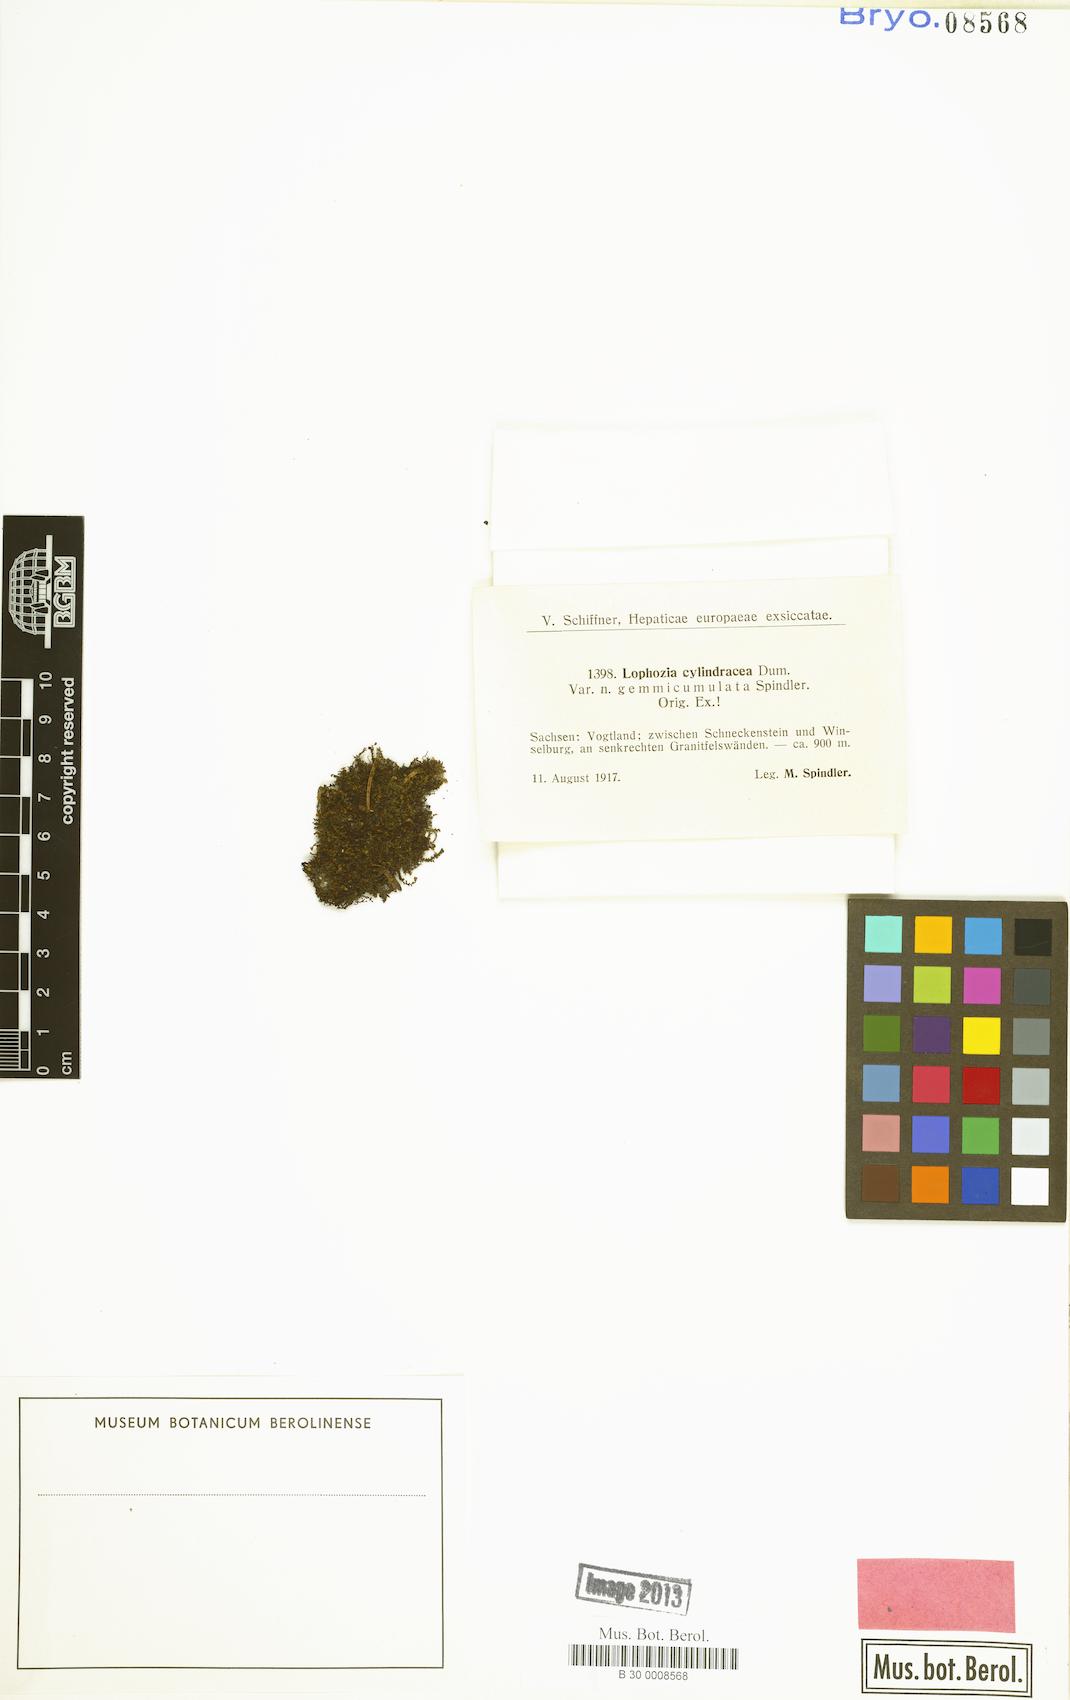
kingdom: Plantae
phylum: Marchantiophyta
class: Jungermanniopsida
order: Jungermanniales
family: Lophoziaceae
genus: Lophoziopsis
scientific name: Lophoziopsis excisa
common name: Cut notchwort
